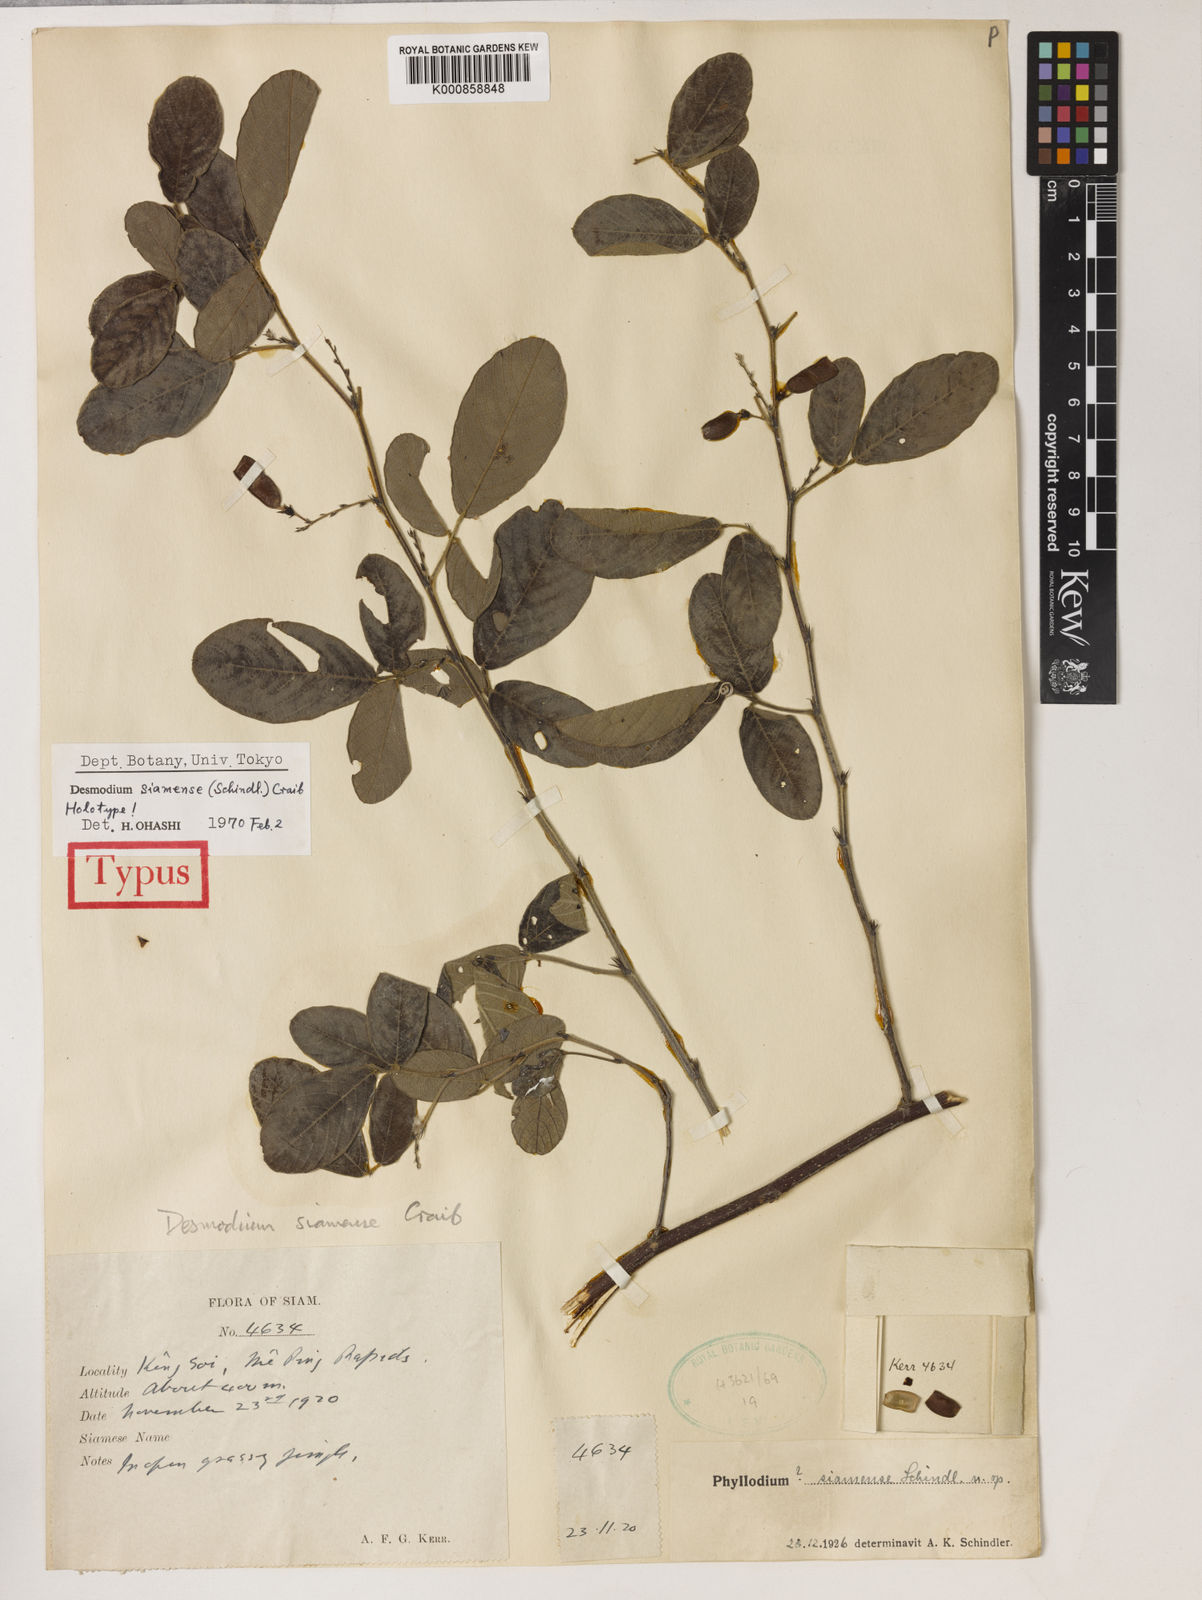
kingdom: Plantae
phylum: Tracheophyta
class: Magnoliopsida
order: Fabales
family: Fabaceae
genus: Ototropis
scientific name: Ototropis siamensis
